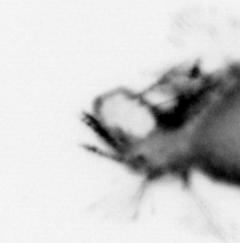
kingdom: Animalia
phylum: Annelida
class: Polychaeta
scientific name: Polychaeta
